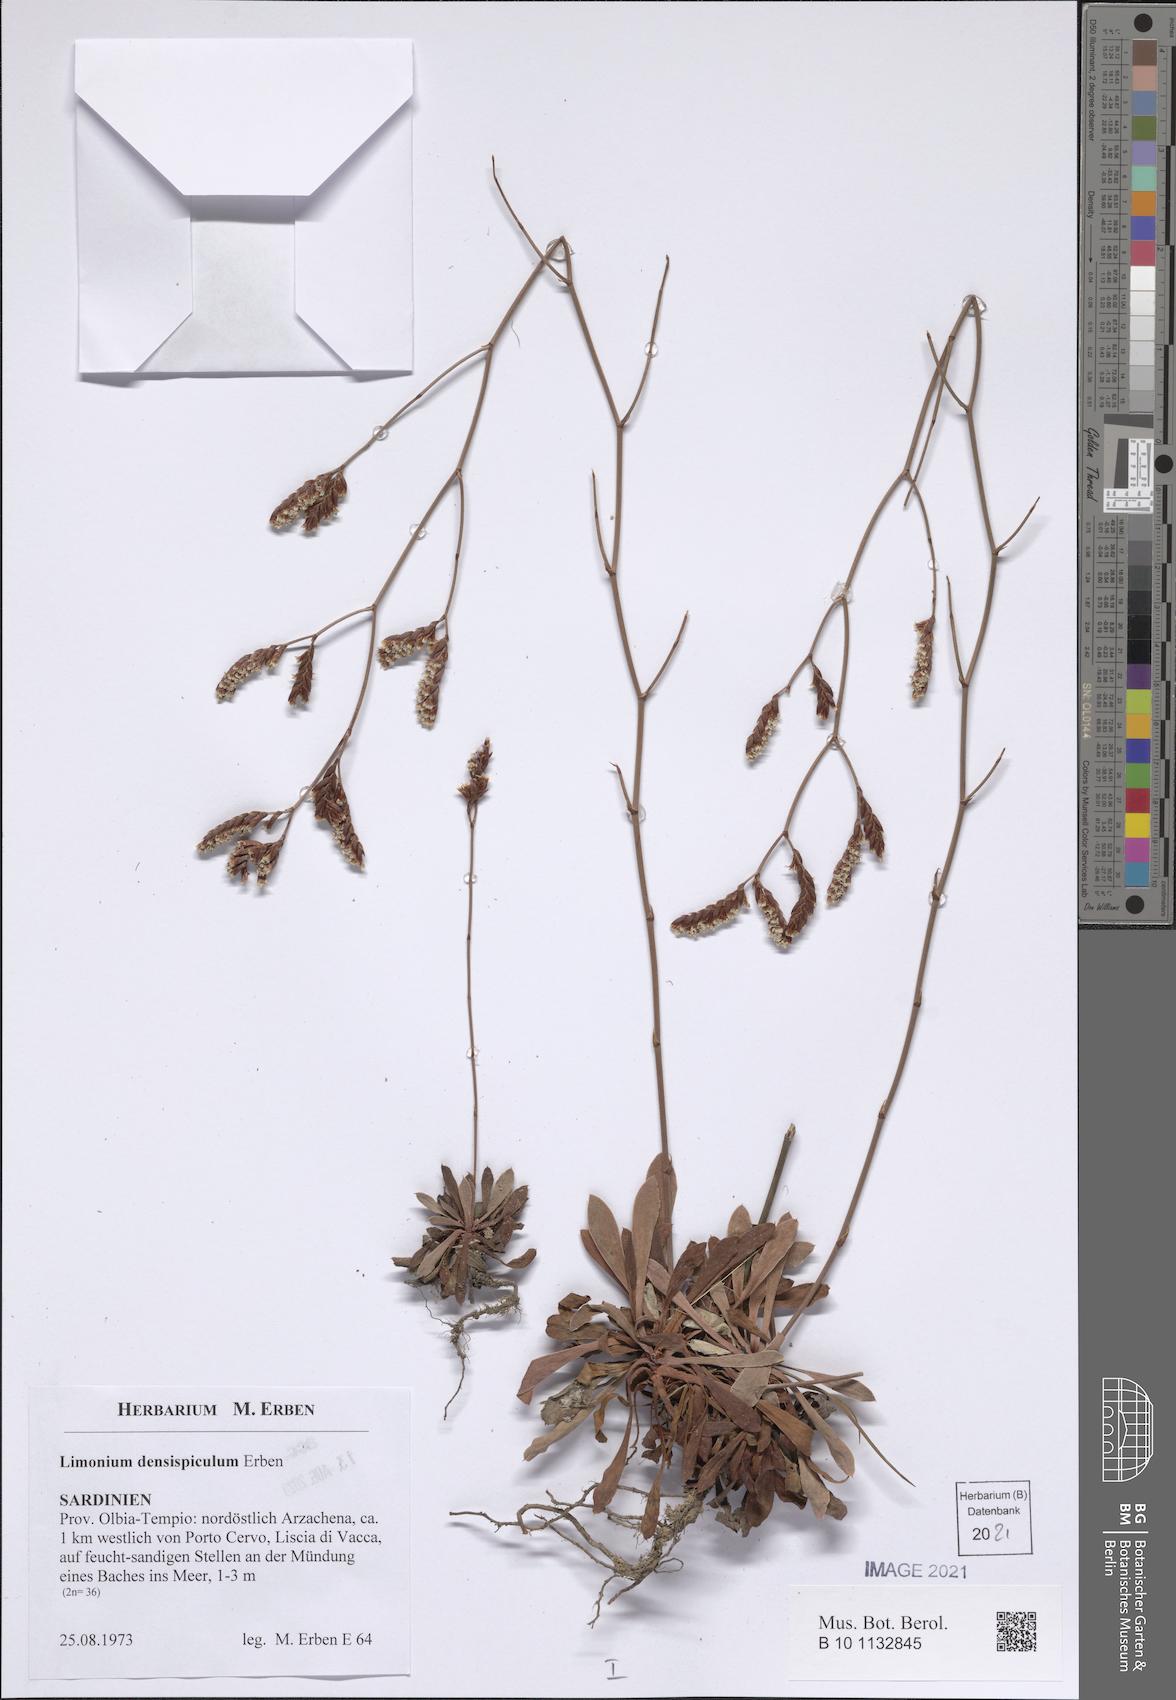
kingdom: Plantae
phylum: Tracheophyta
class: Magnoliopsida
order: Caryophyllales
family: Plumbaginaceae
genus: Limonium
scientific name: Limonium
